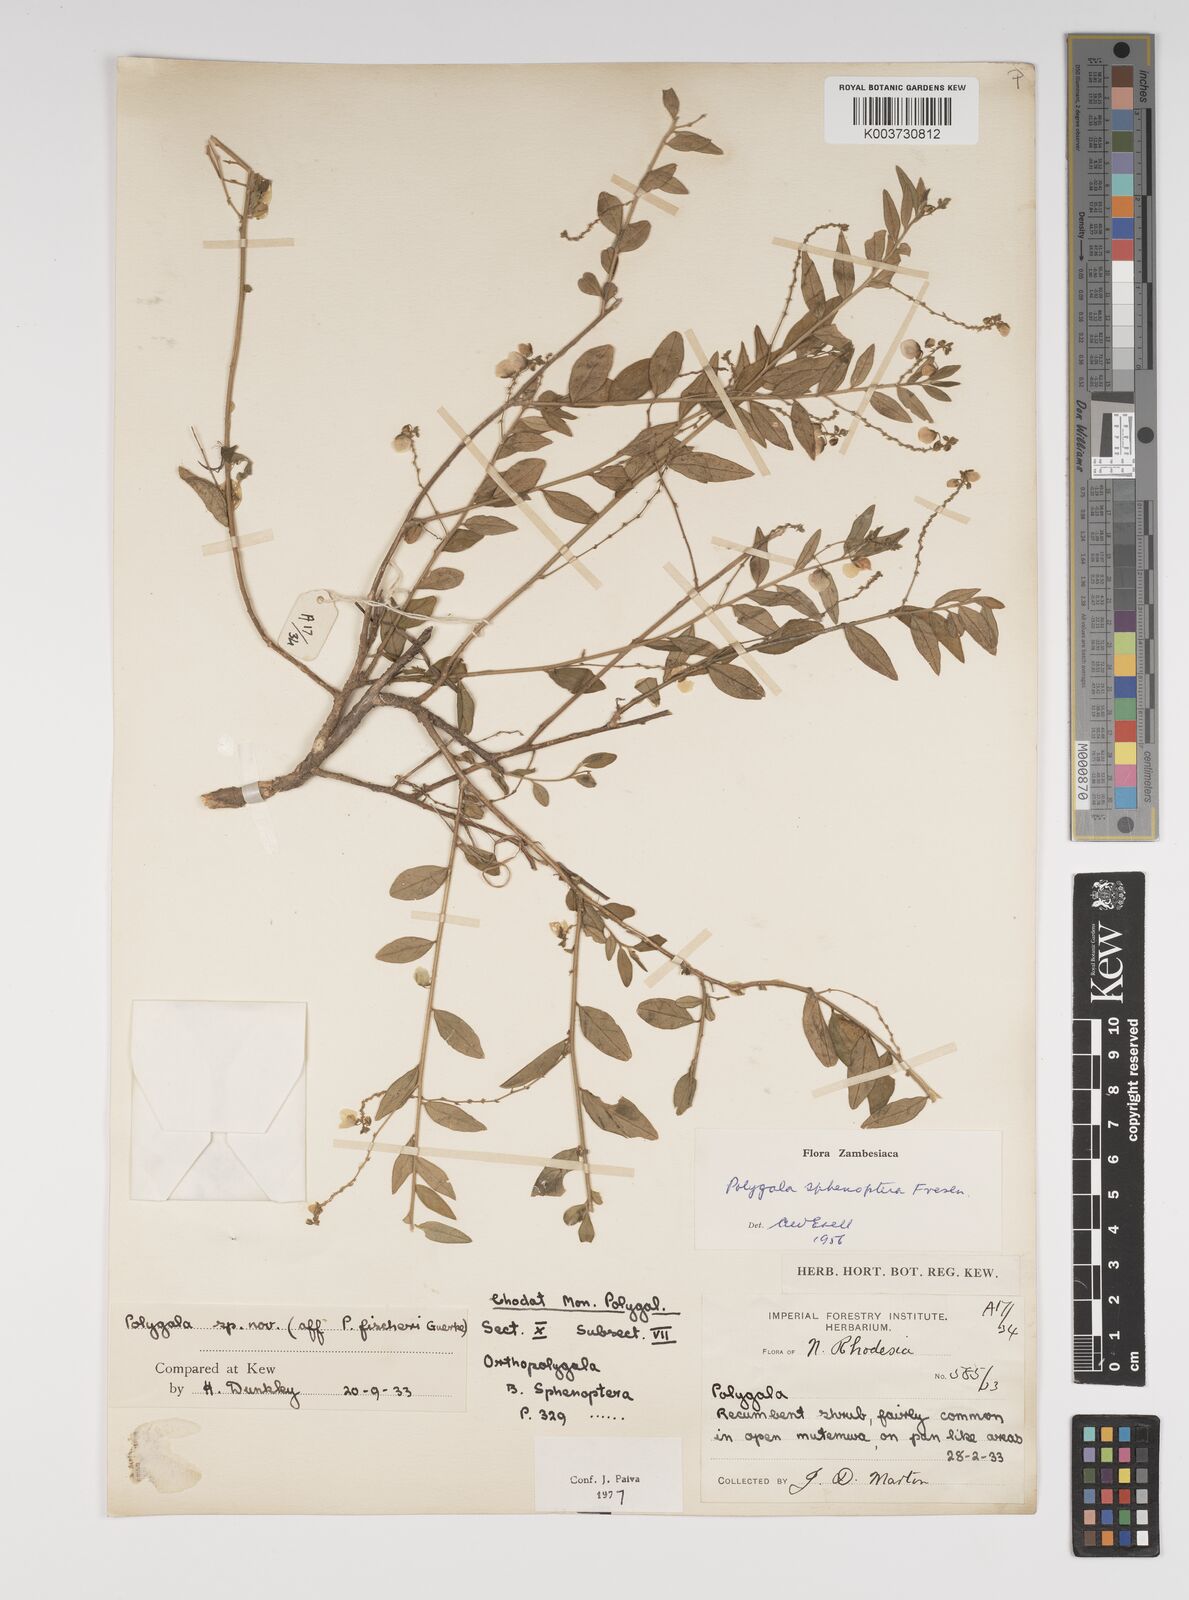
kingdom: Plantae
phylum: Tracheophyta
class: Magnoliopsida
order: Fabales
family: Polygalaceae
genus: Polygala
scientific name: Polygala sphenoptera
